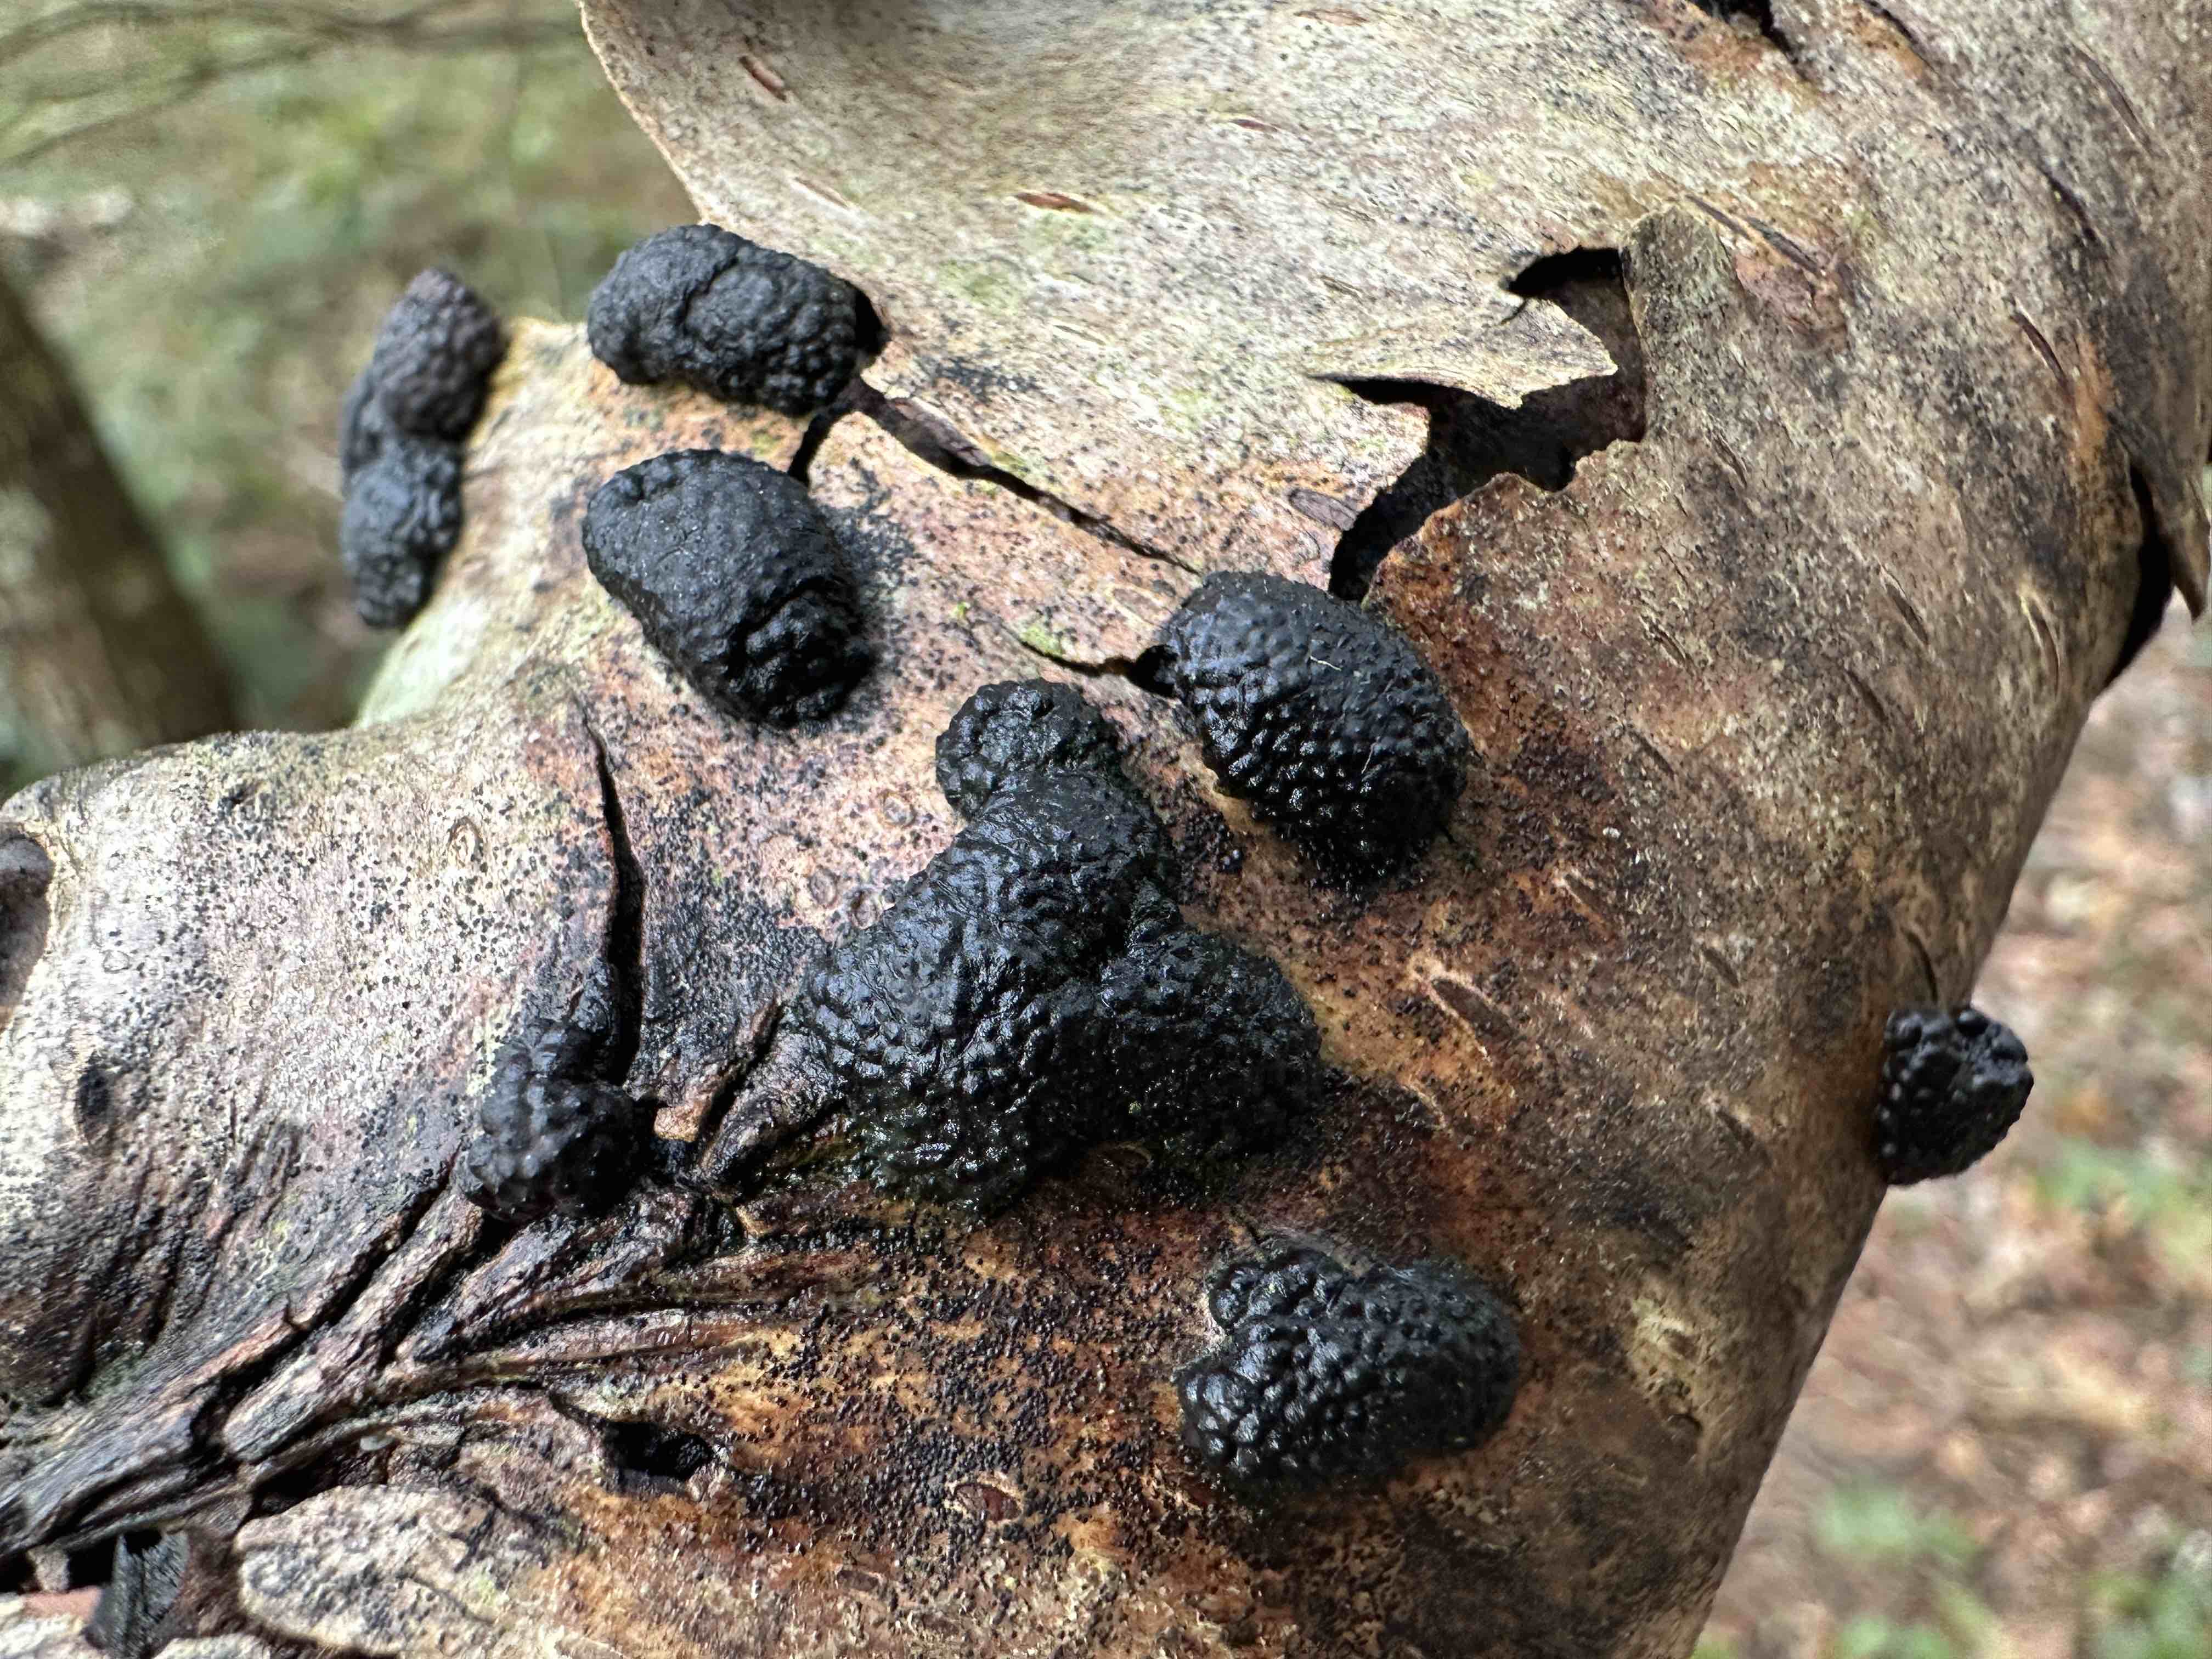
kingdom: Fungi
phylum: Ascomycota
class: Sordariomycetes
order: Xylariales
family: Hypoxylaceae
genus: Jackrogersella
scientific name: Jackrogersella multiformis
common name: foranderlig kulbær
